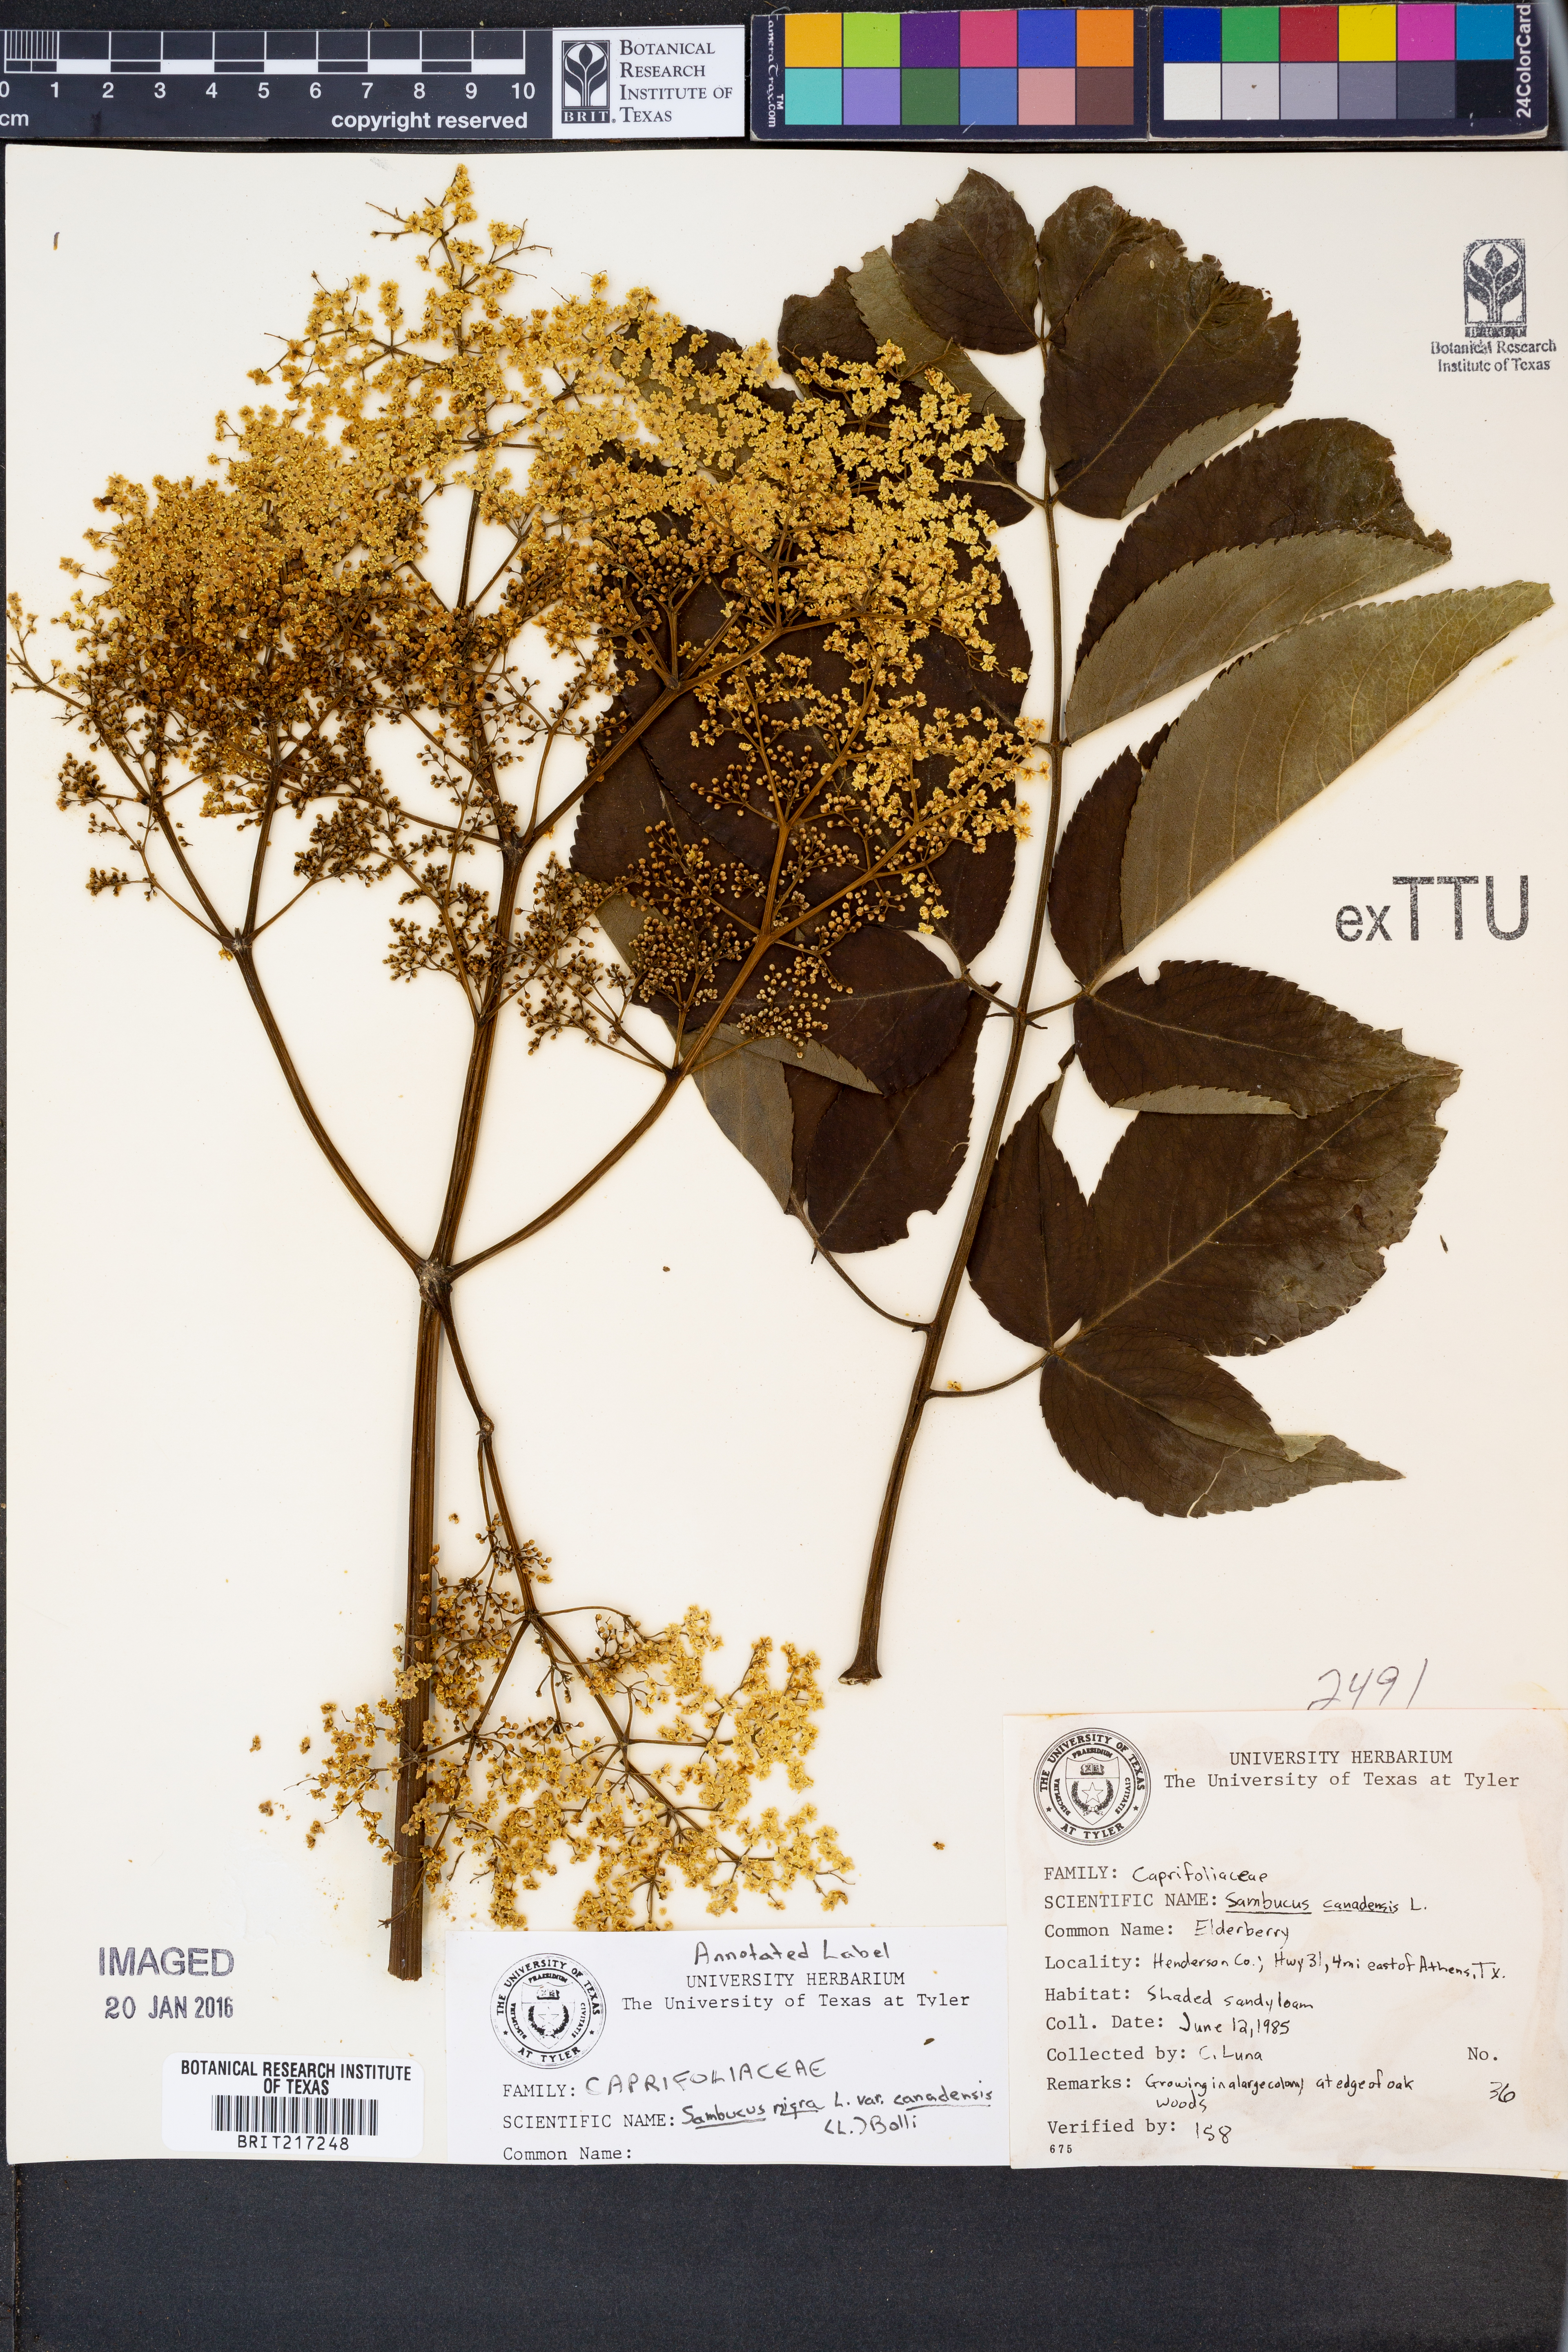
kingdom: Plantae
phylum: Tracheophyta
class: Magnoliopsida
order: Dipsacales
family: Viburnaceae
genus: Sambucus
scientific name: Sambucus canadensis
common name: American elder
